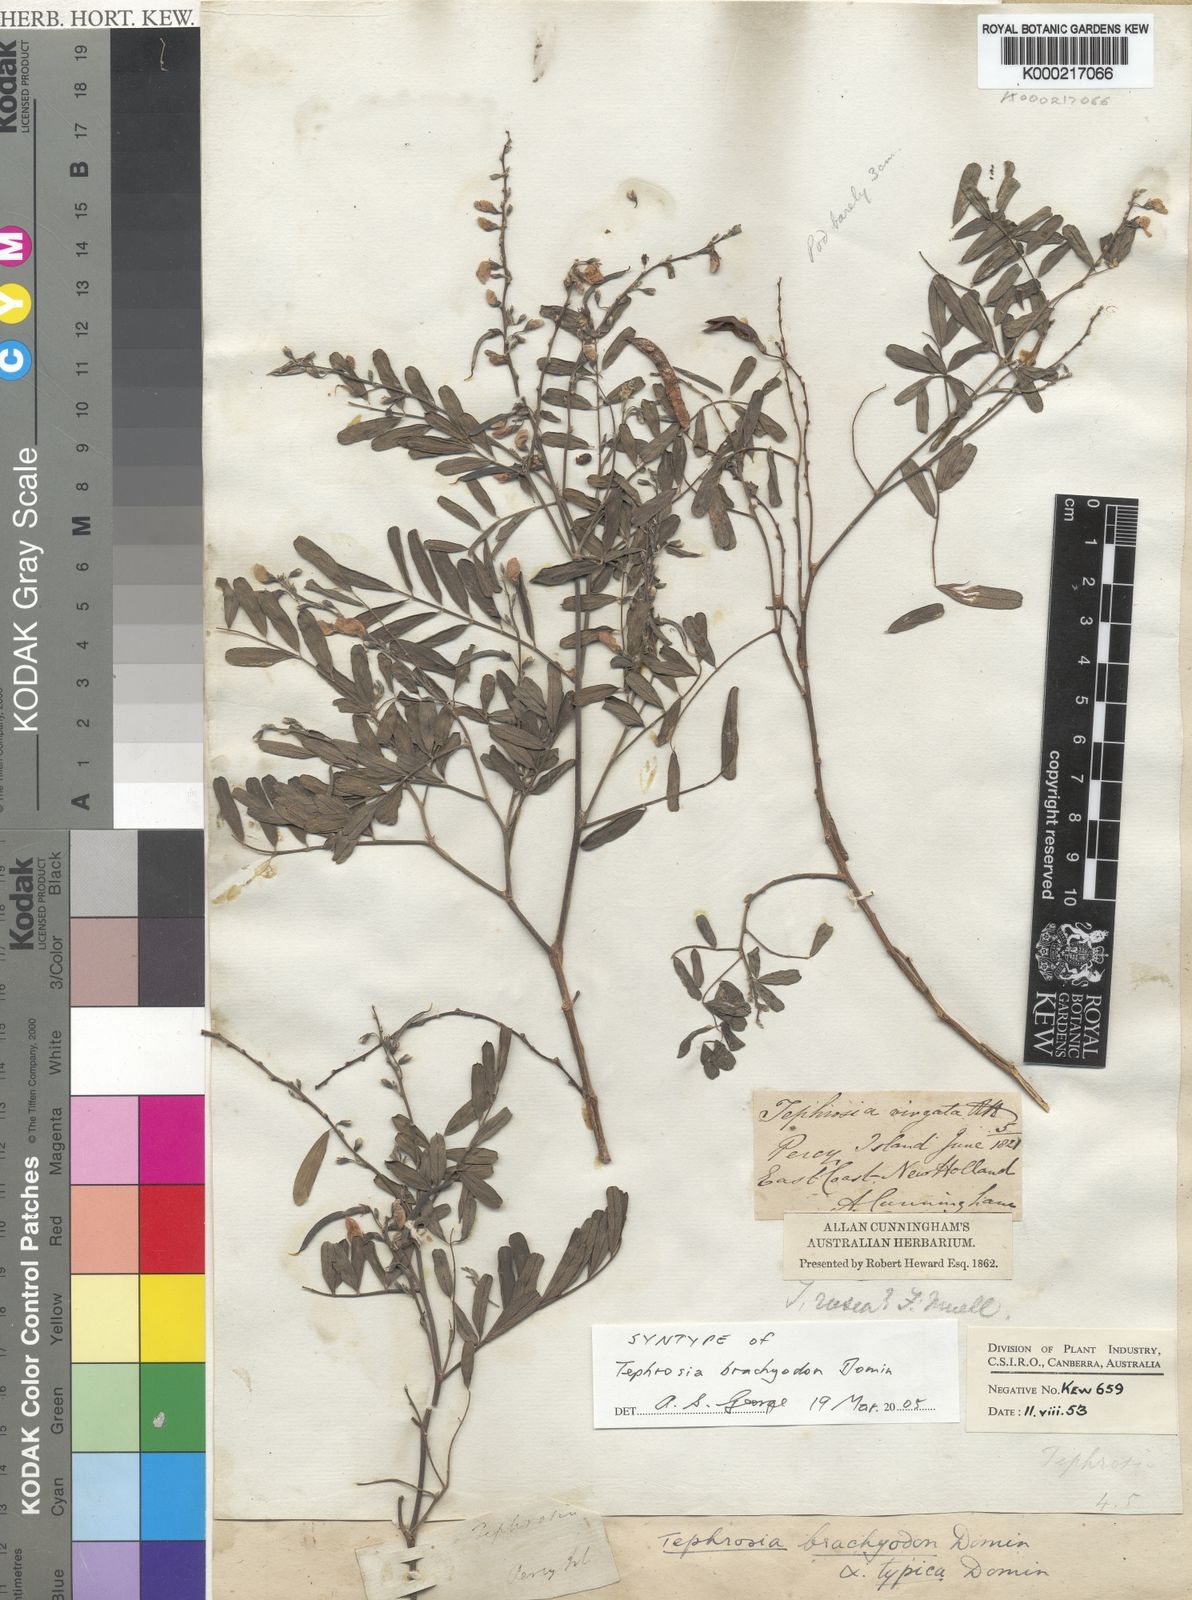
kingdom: Plantae
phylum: Tracheophyta
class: Magnoliopsida
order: Fabales
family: Fabaceae
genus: Tephrosia
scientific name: Tephrosia brachyodon
